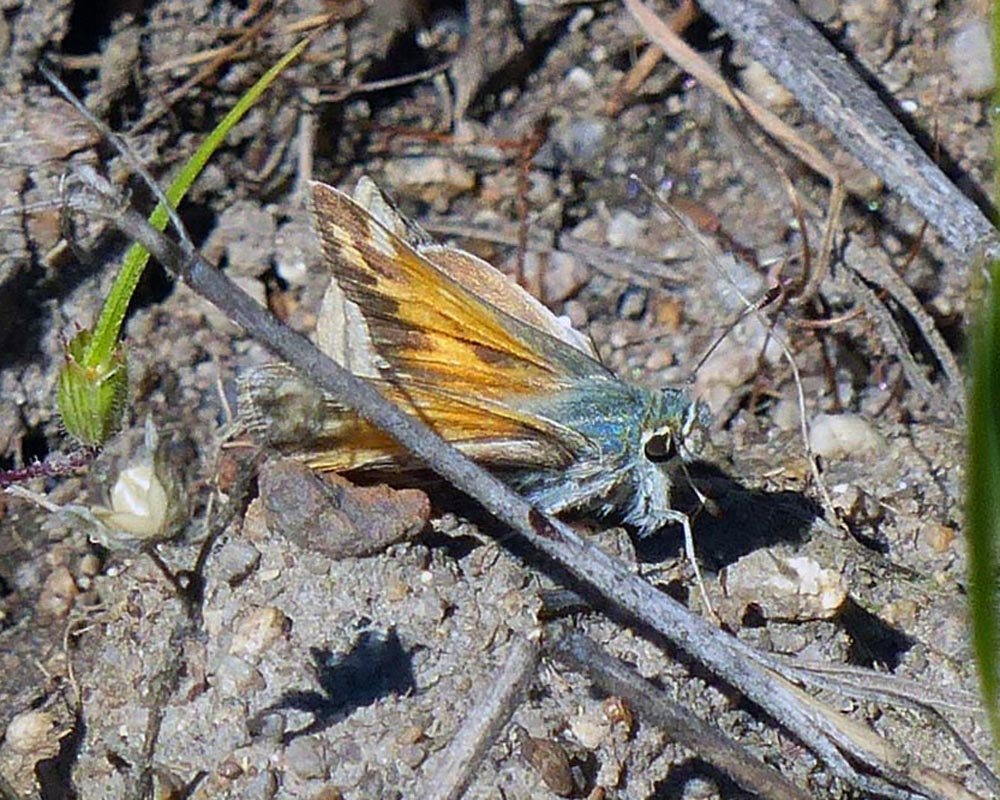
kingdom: Animalia
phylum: Arthropoda
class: Insecta
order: Lepidoptera
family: Hesperiidae
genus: Hesperia
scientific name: Hesperia juba
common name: Juba Skipper
